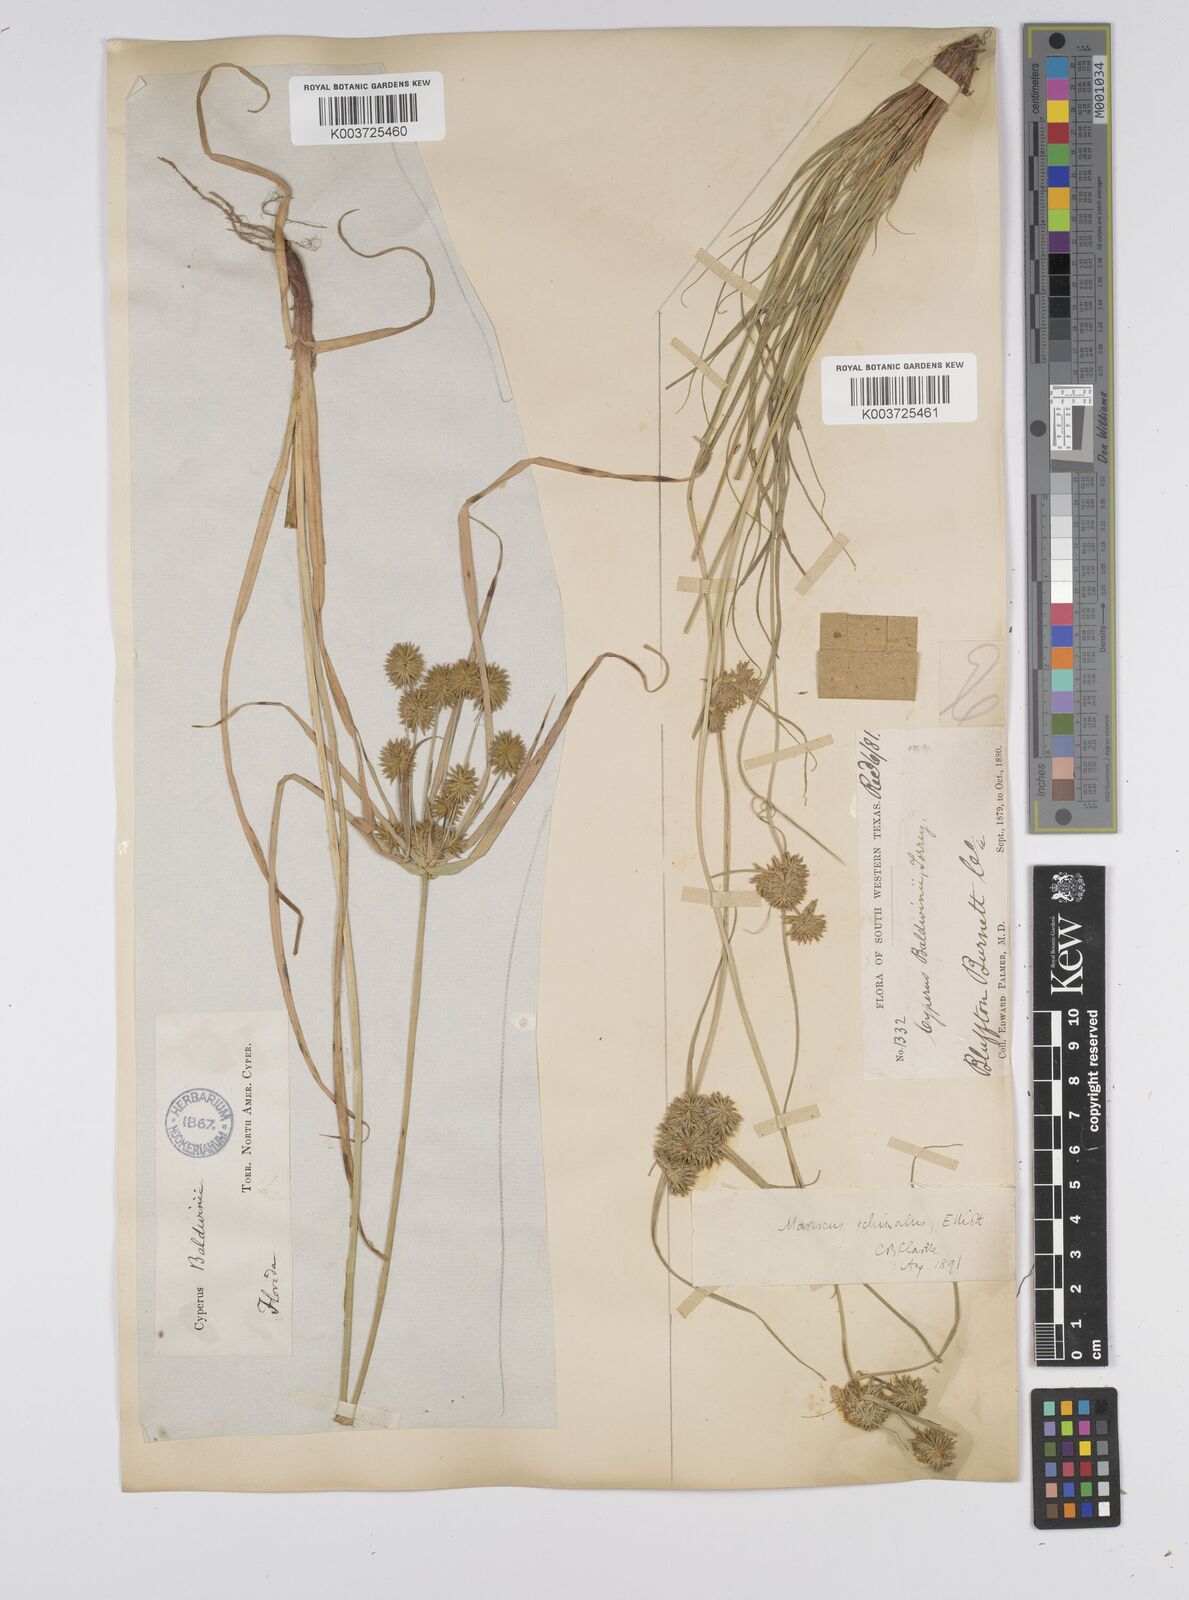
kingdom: Plantae
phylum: Tracheophyta
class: Liliopsida
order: Poales
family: Cyperaceae
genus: Cyperus
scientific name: Cyperus luzulae
